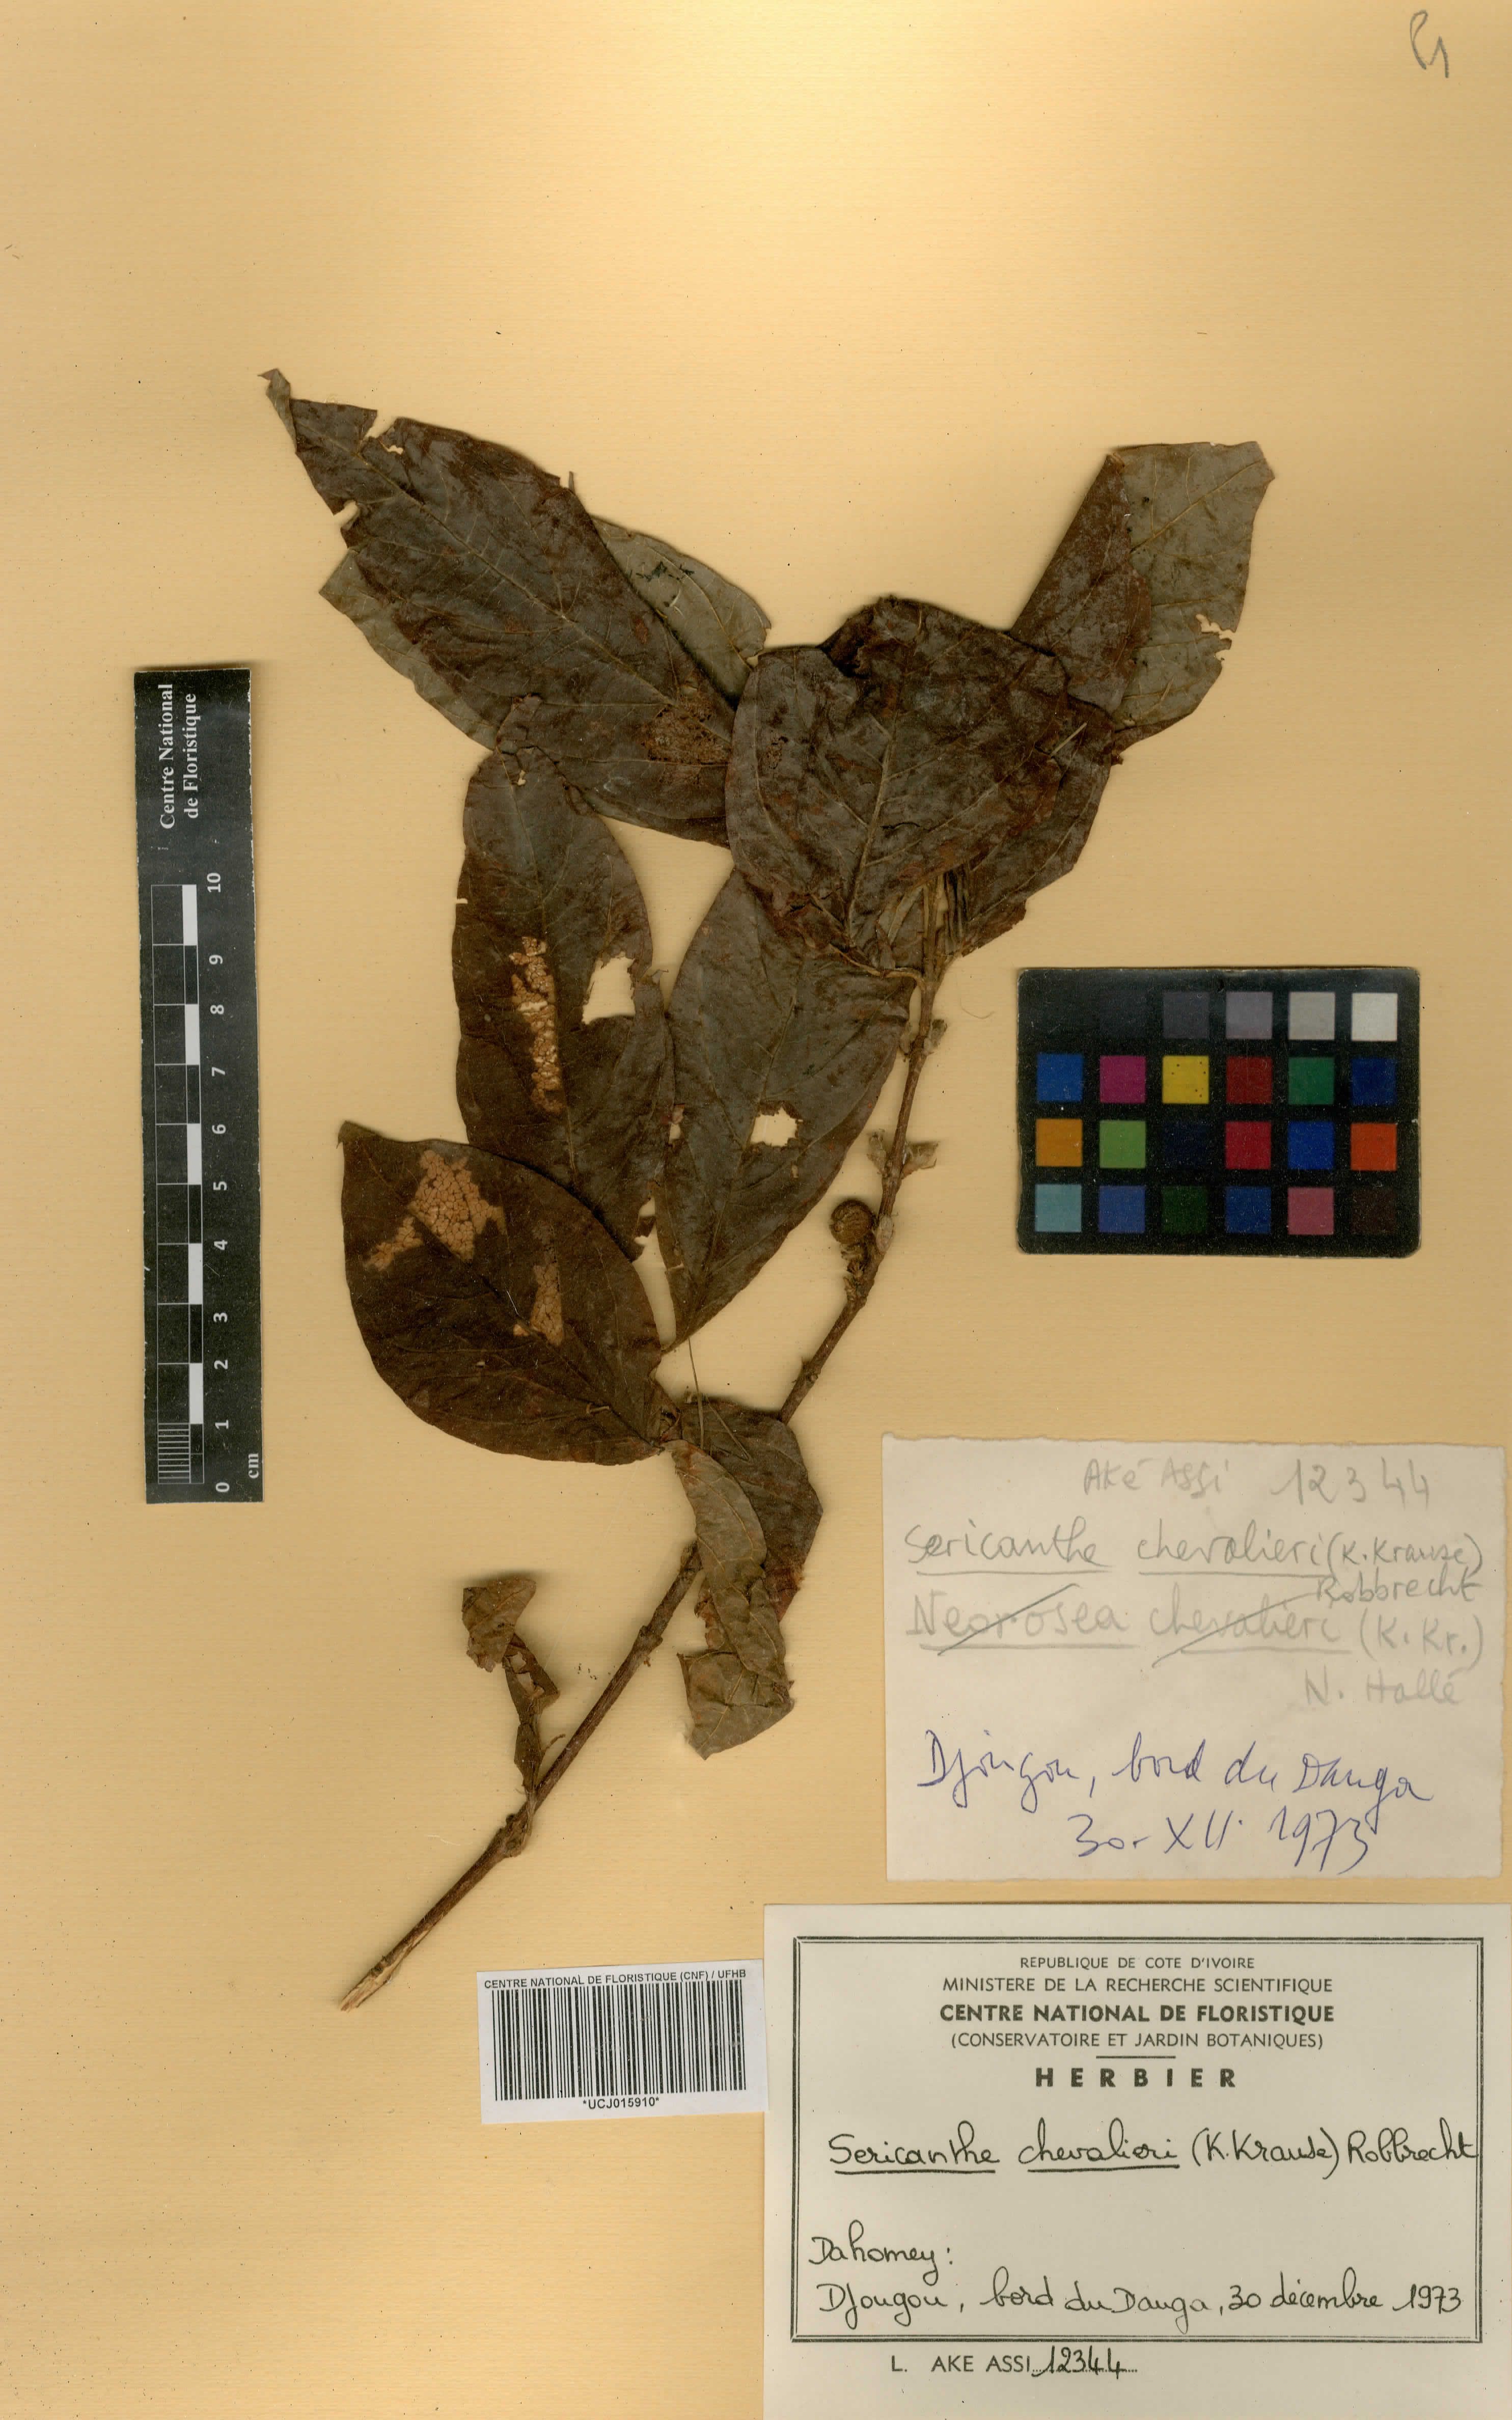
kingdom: Plantae
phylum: Tracheophyta
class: Magnoliopsida
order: Gentianales
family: Rubiaceae
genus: Sericanthe
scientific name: Sericanthe chevalieri
